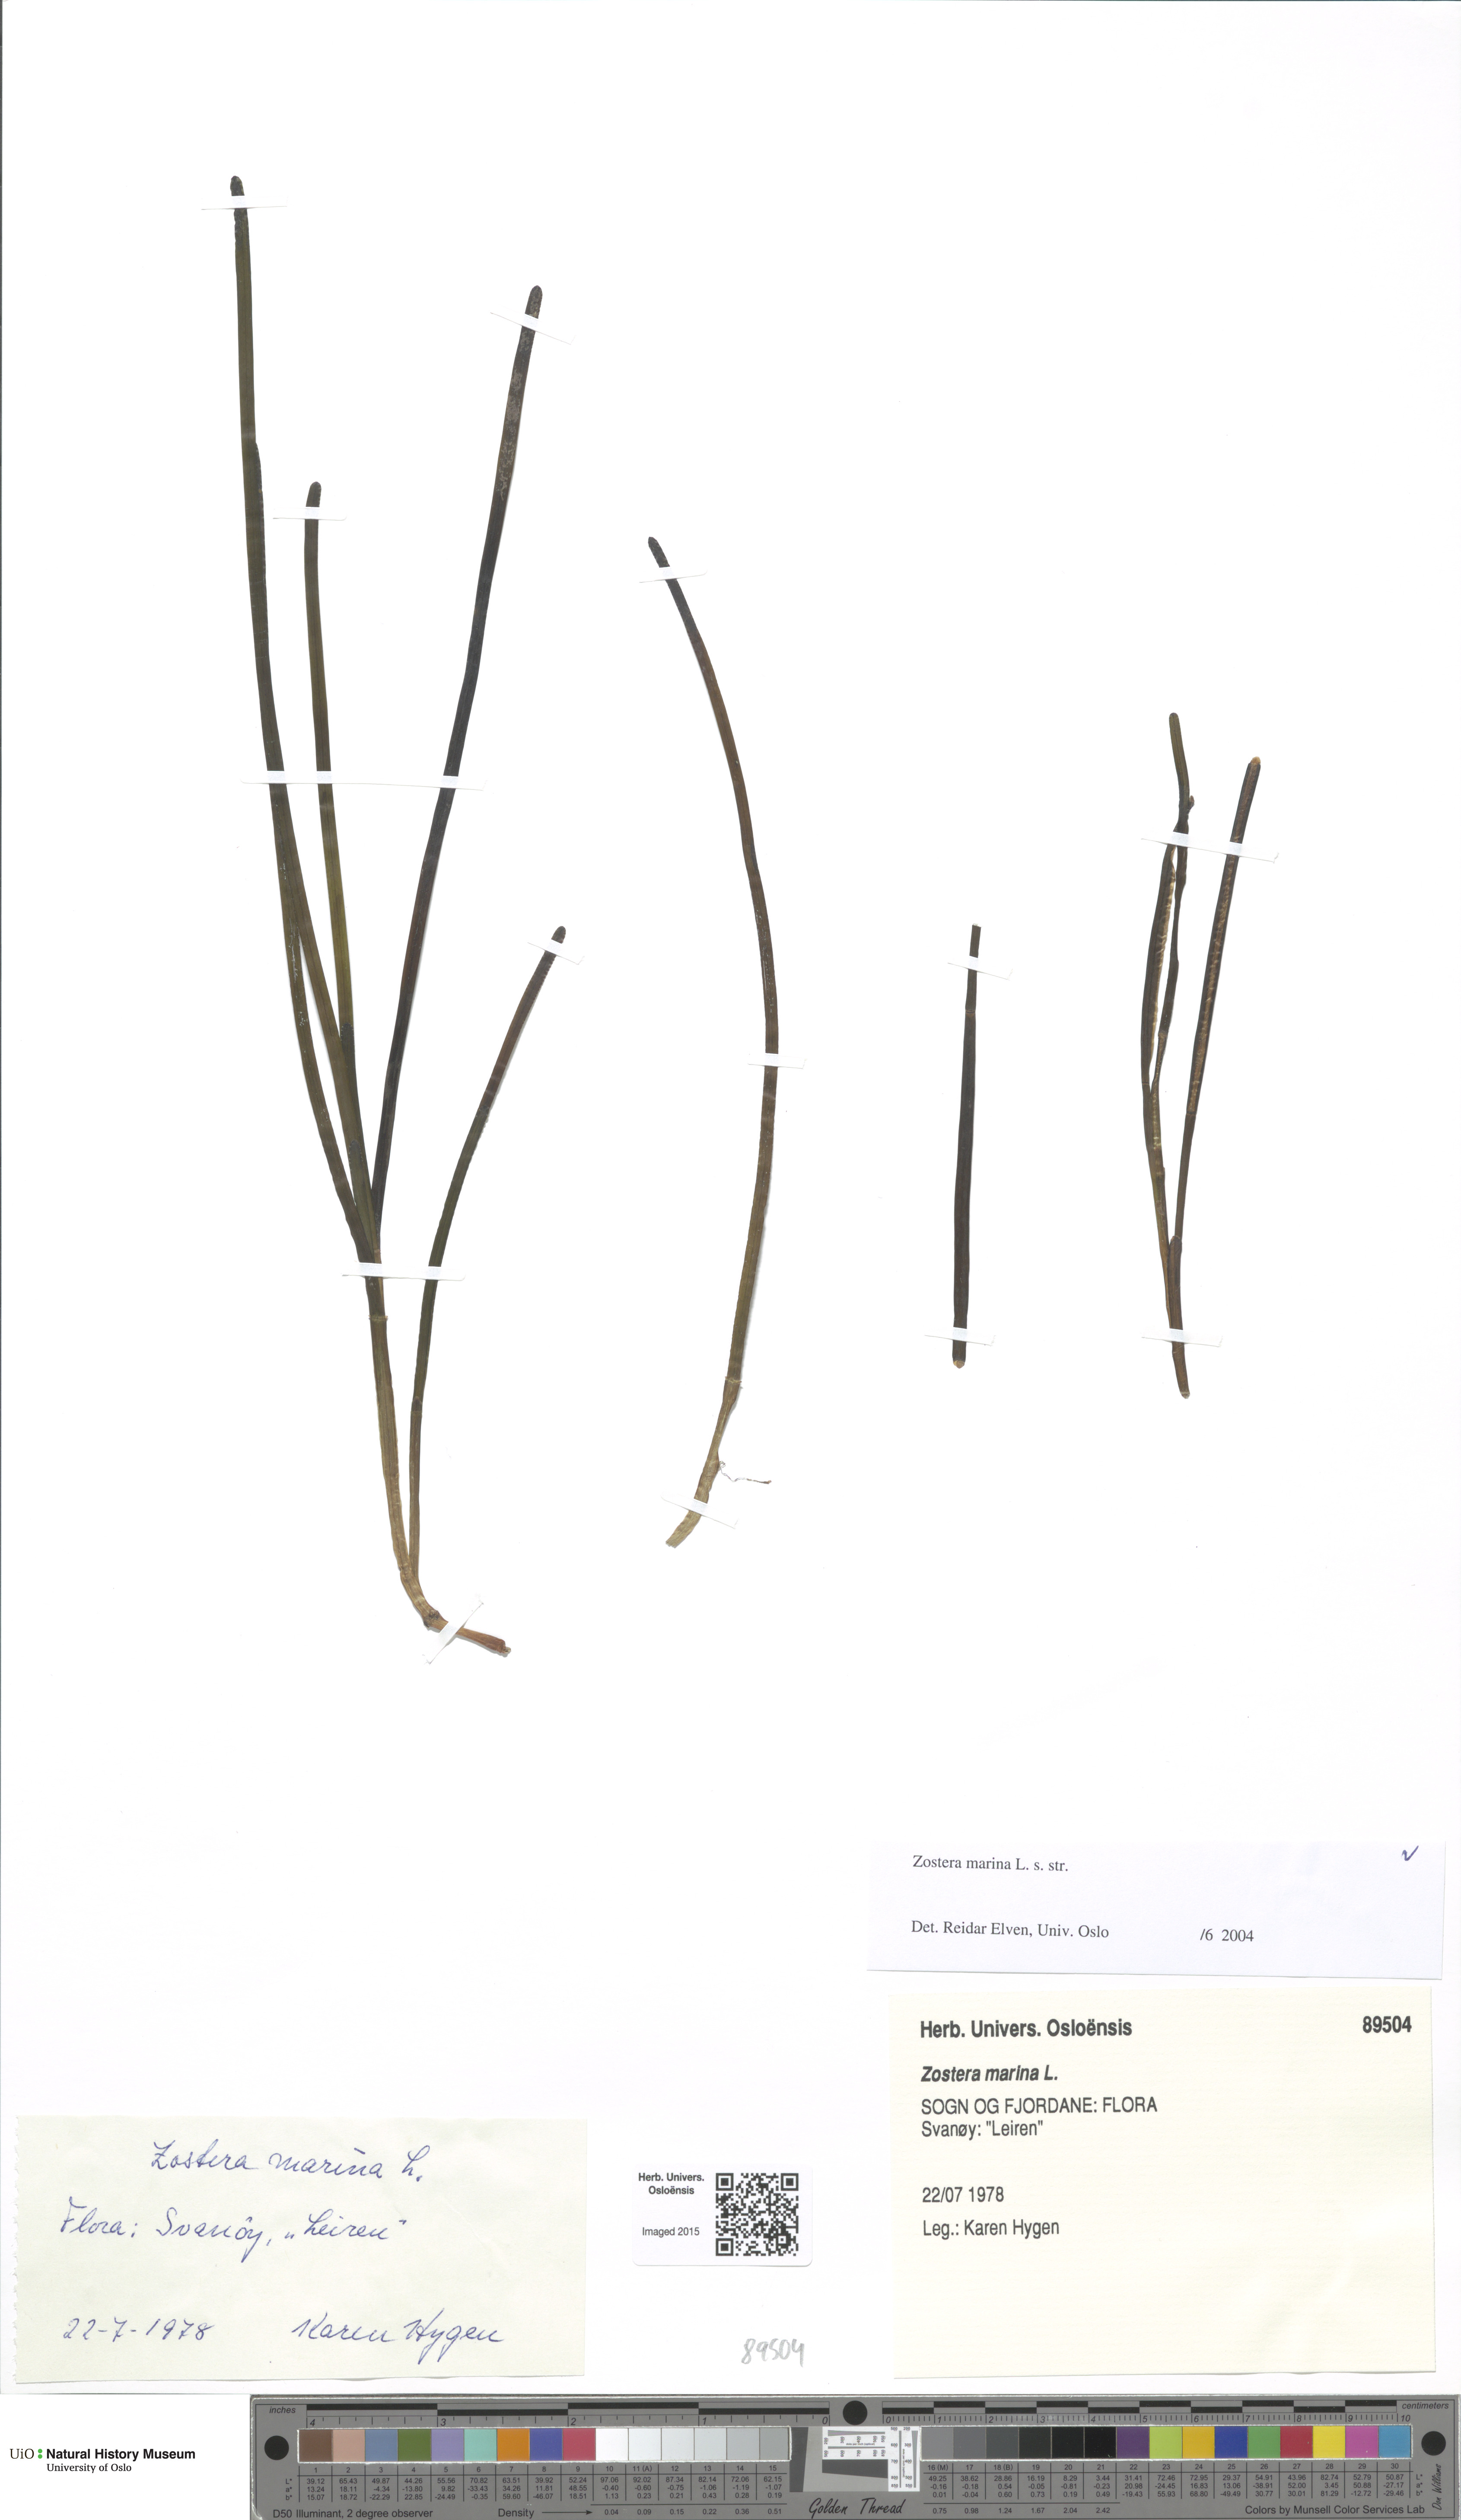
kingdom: Plantae
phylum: Tracheophyta
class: Liliopsida
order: Alismatales
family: Zosteraceae
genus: Zostera
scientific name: Zostera marina
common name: Eelgrass
